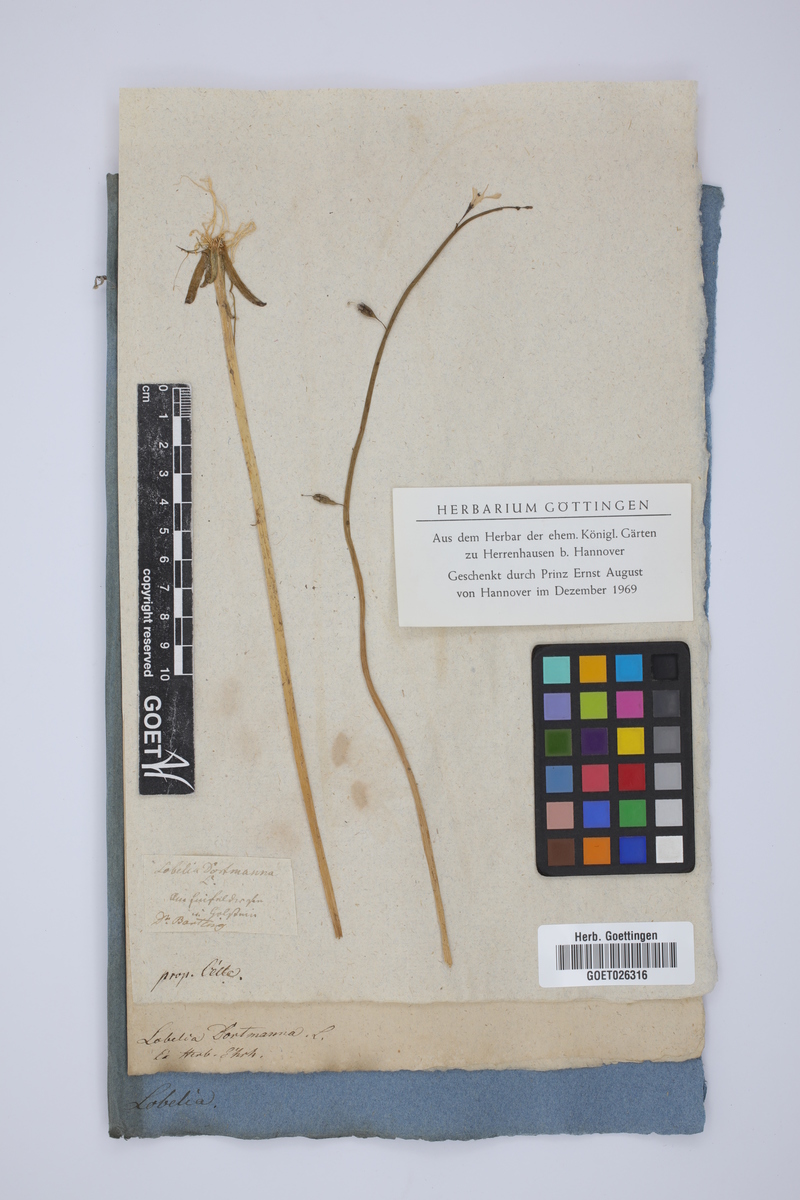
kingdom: Plantae
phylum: Tracheophyta
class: Magnoliopsida
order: Asterales
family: Campanulaceae
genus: Lobelia
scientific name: Lobelia dortmanna
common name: Water lobelia
